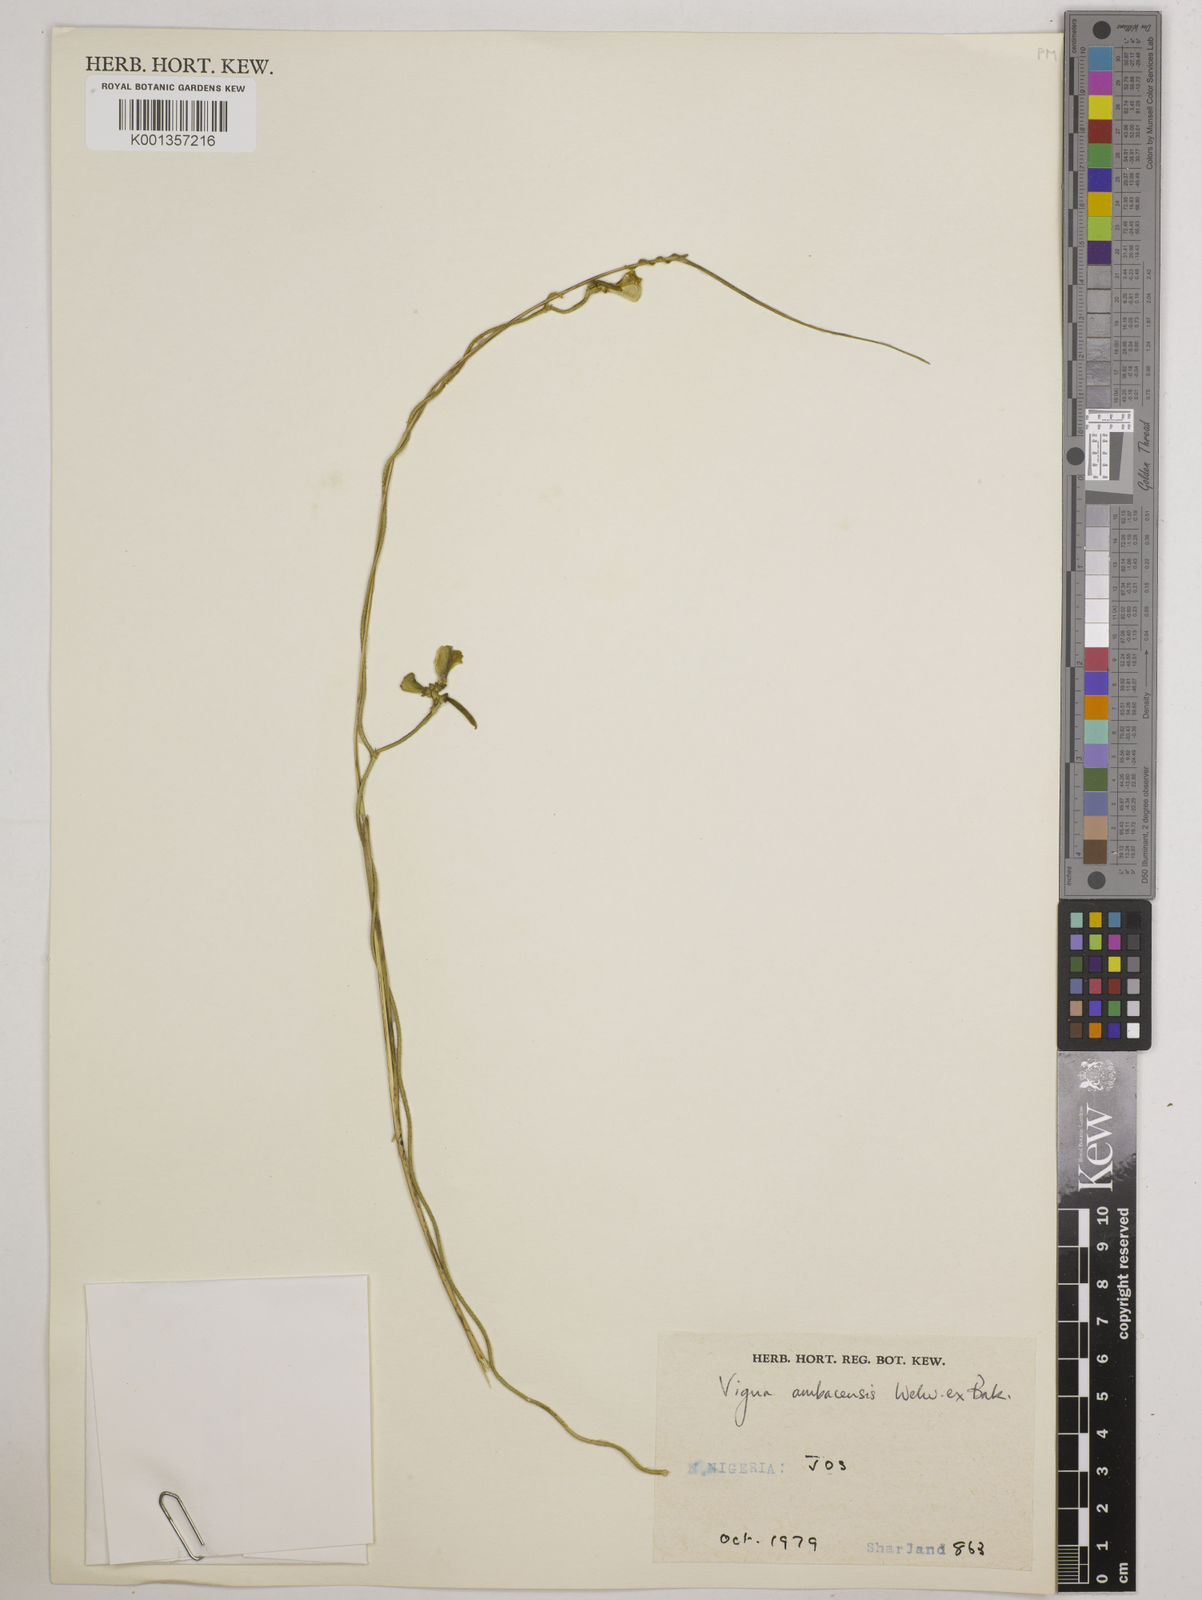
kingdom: Plantae
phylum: Tracheophyta
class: Magnoliopsida
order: Fabales
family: Fabaceae
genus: Vigna
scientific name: Vigna ambacensis
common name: Tsarkiyan zomo
